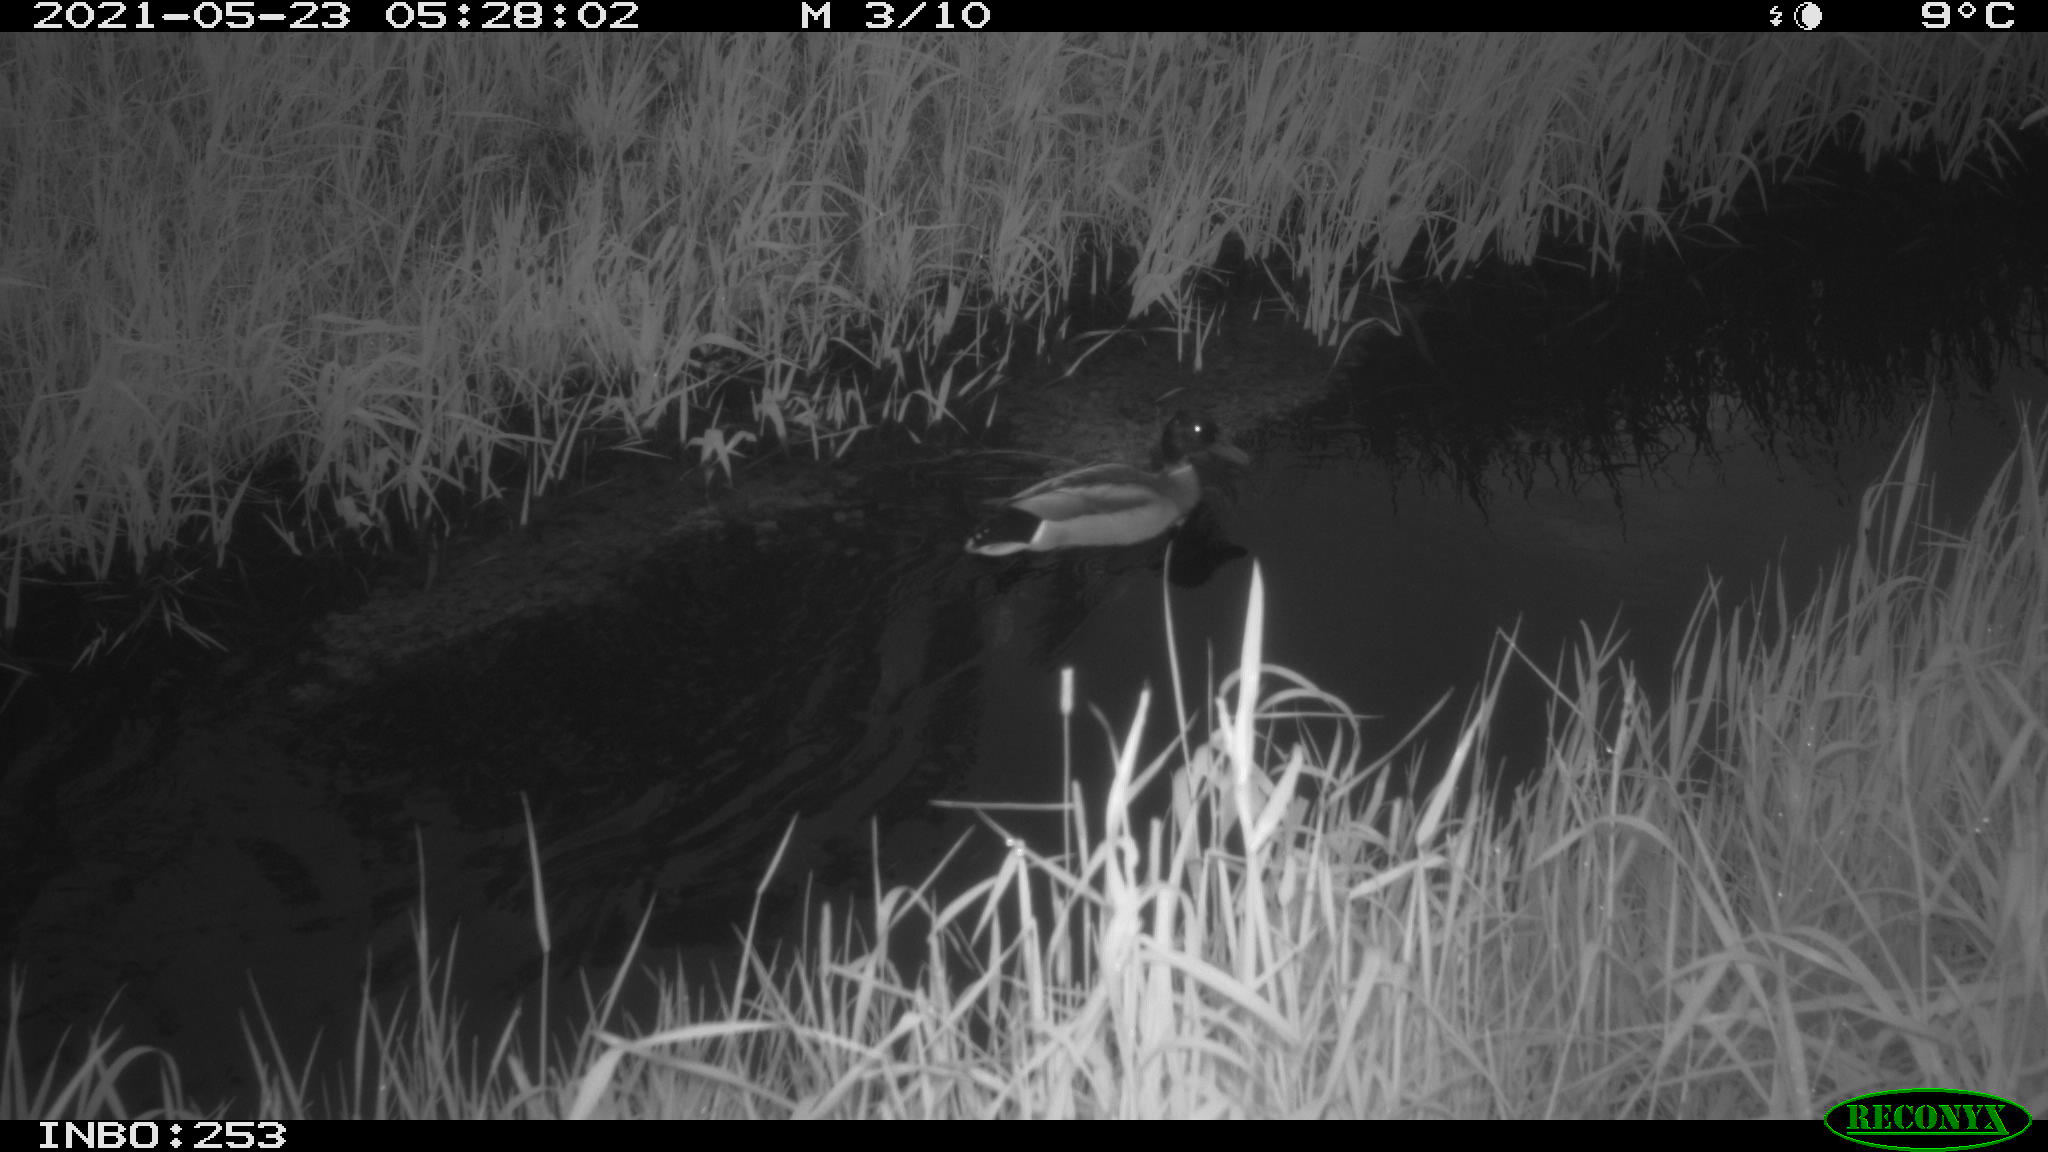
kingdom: Animalia
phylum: Chordata
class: Aves
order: Anseriformes
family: Anatidae
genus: Anas
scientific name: Anas platyrhynchos
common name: Mallard
